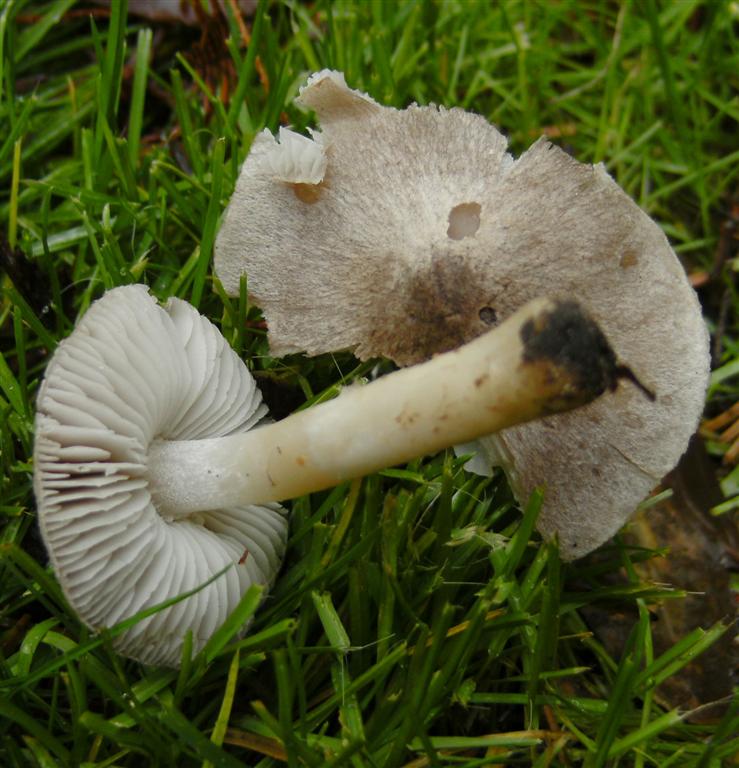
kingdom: Fungi
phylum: Basidiomycota
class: Agaricomycetes
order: Agaricales
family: Tricholomataceae
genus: Tricholoma
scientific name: Tricholoma terreum
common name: jordfarvet ridderhat
